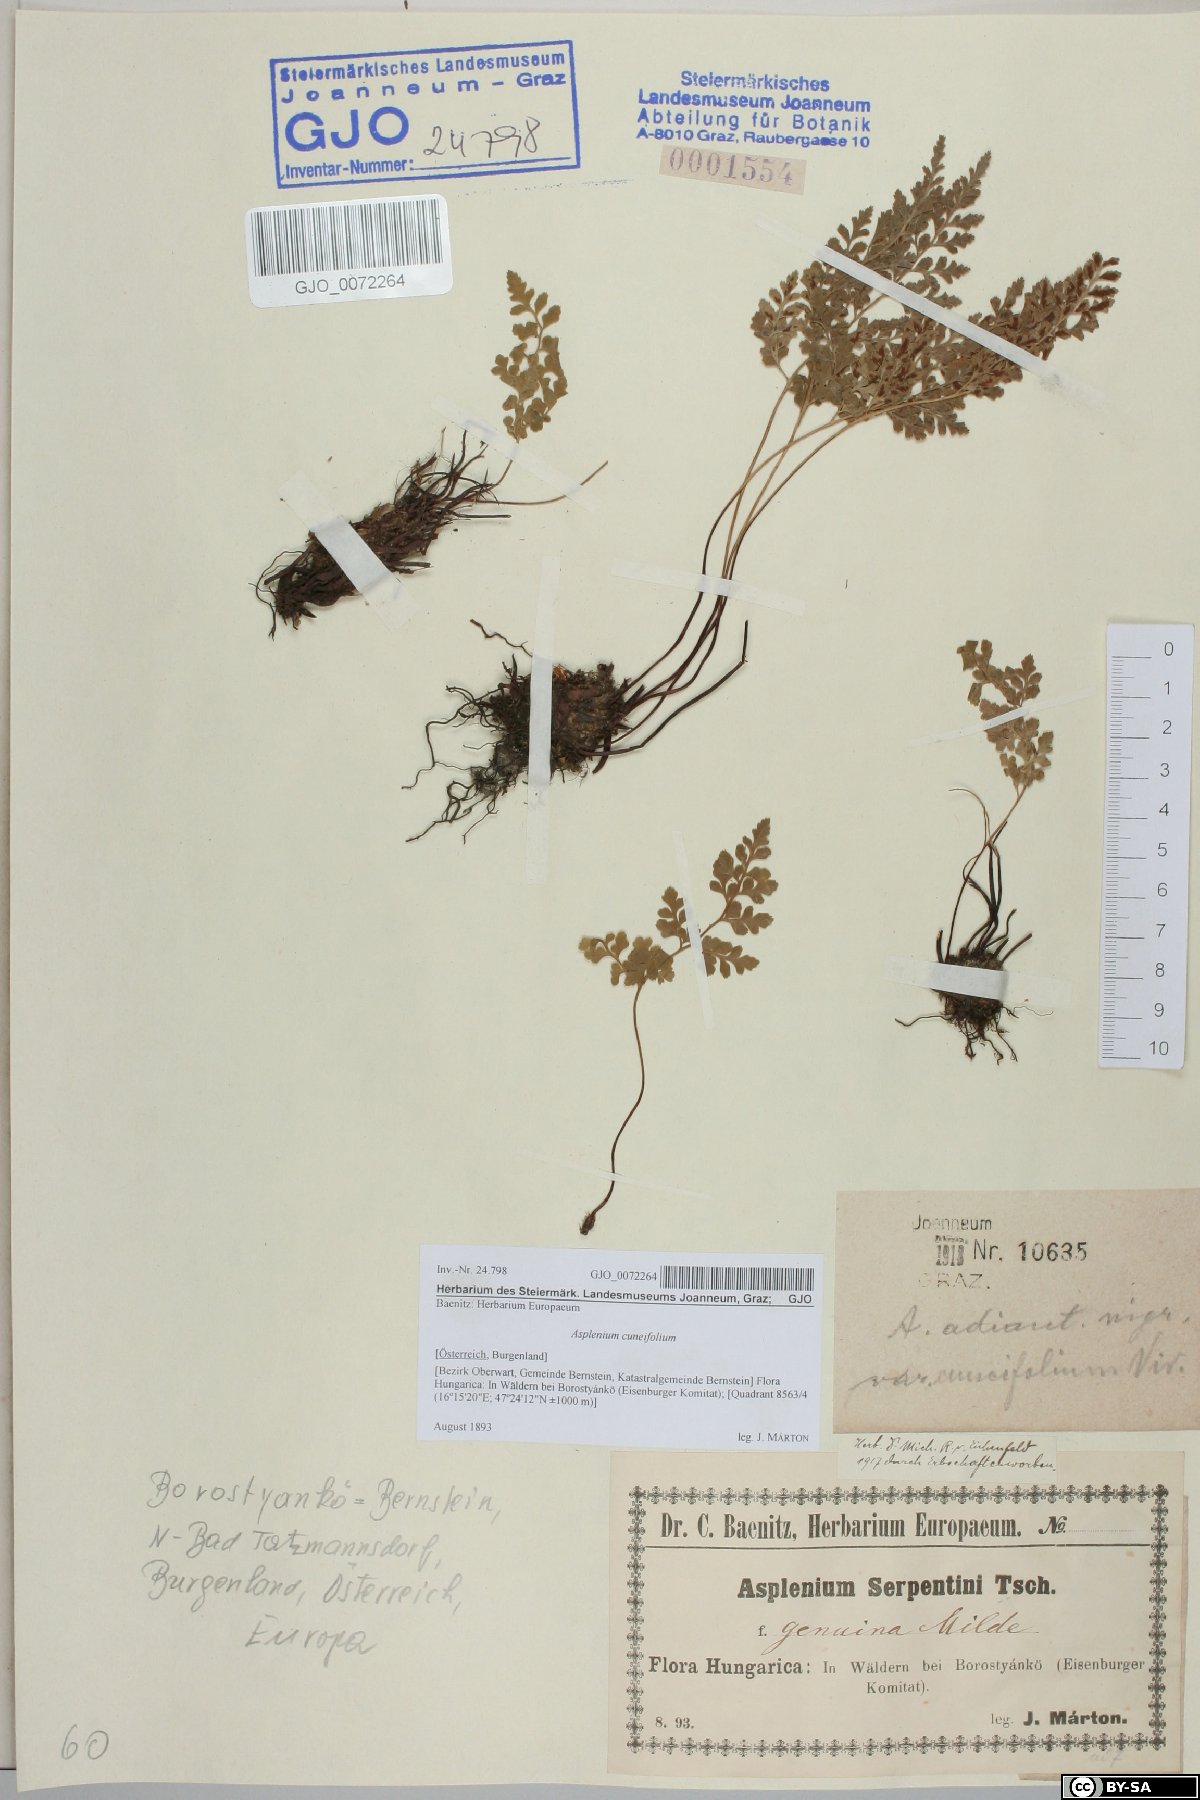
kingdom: Plantae
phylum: Tracheophyta
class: Polypodiopsida
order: Polypodiales
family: Aspleniaceae
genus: Asplenium
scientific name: Asplenium cuneifolium
